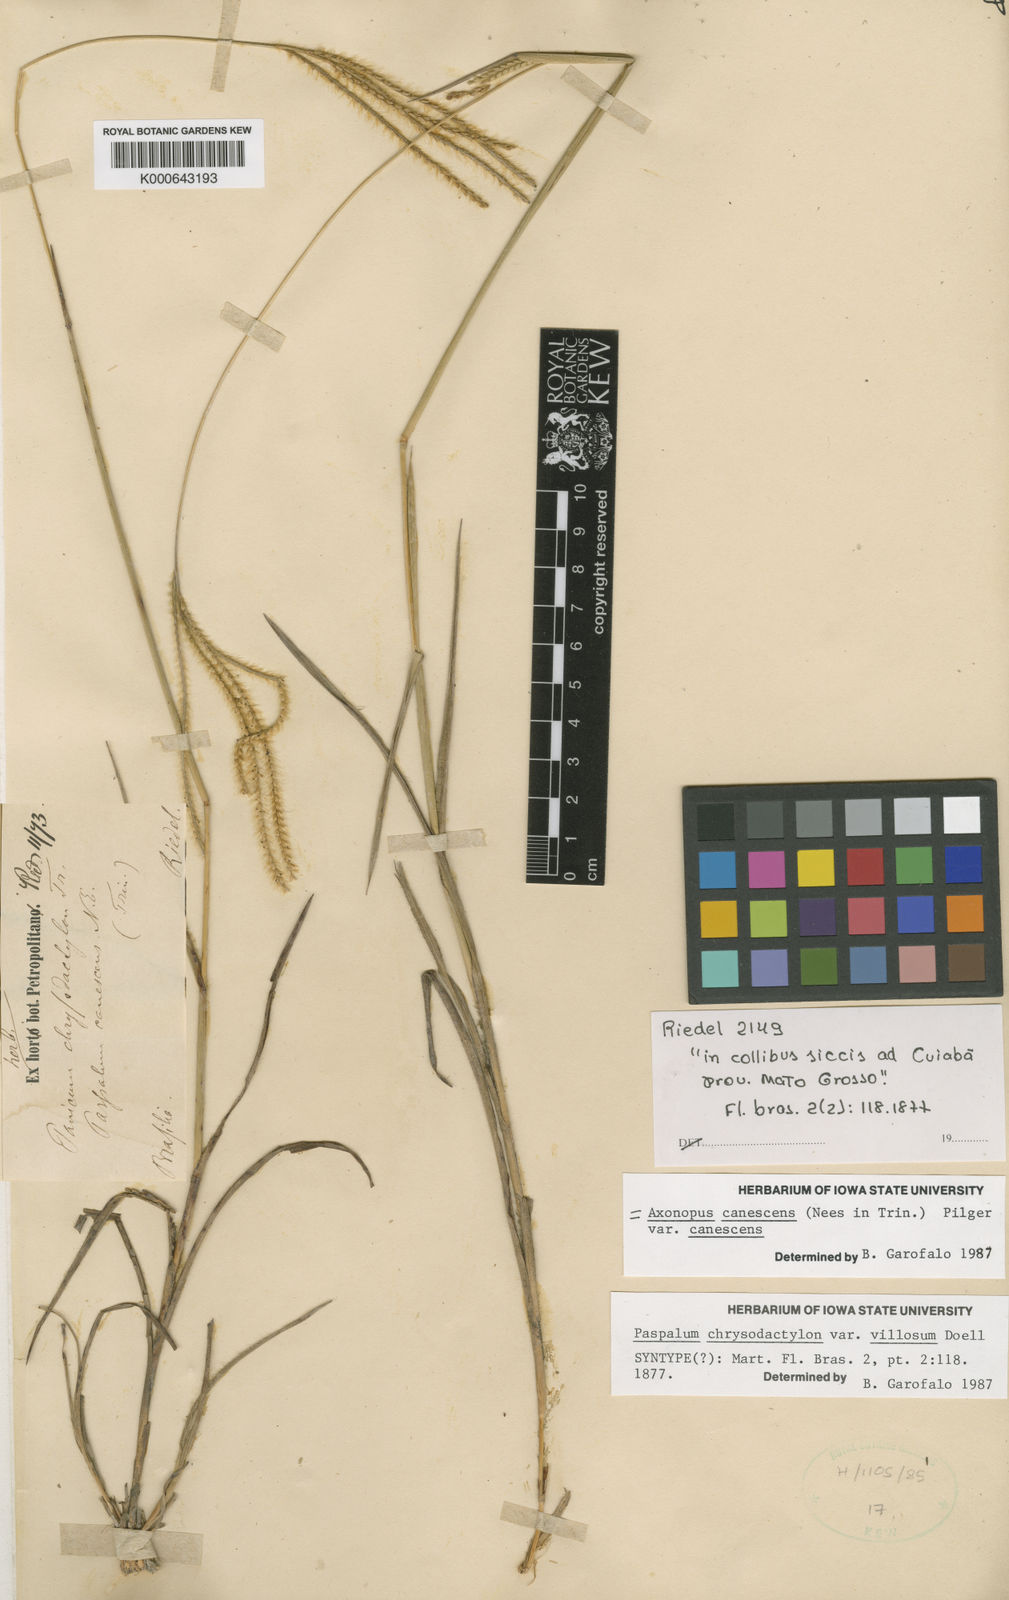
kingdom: Plantae
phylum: Tracheophyta
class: Liliopsida
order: Poales
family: Poaceae
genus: Axonopus
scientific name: Axonopus aureus
